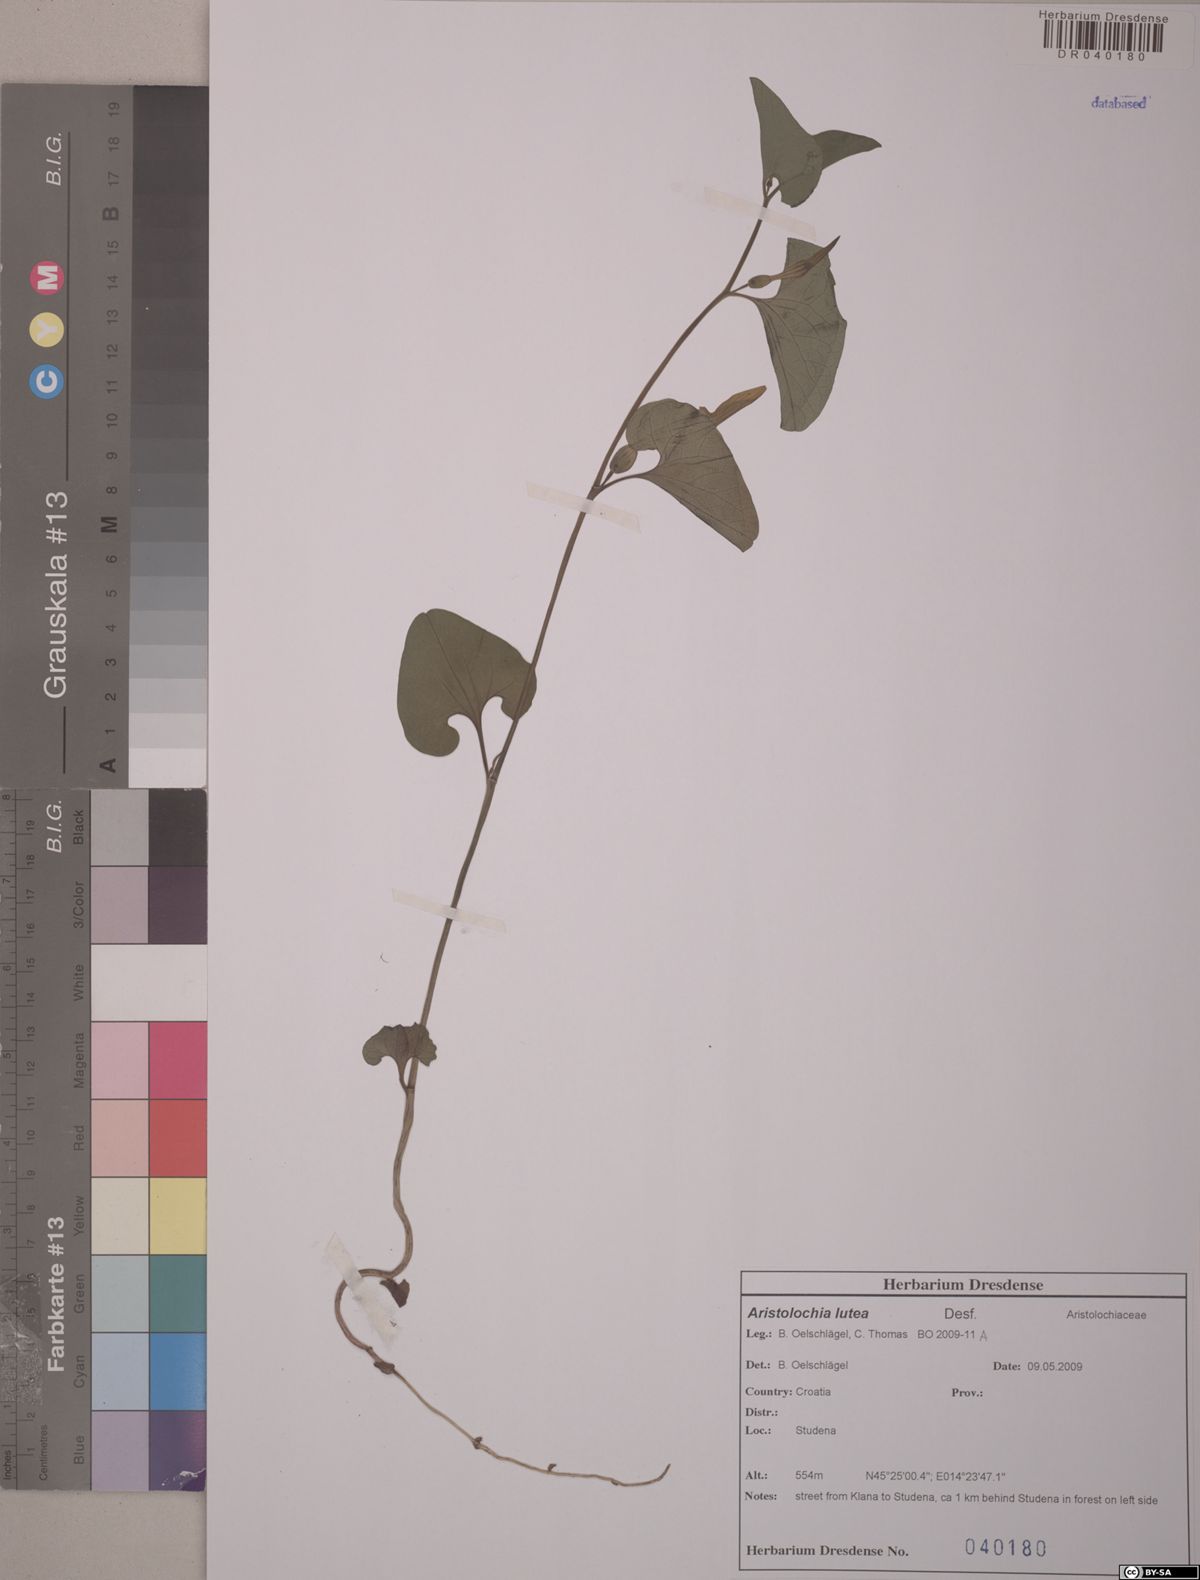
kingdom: Plantae
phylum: Tracheophyta
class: Magnoliopsida
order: Piperales
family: Aristolochiaceae
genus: Aristolochia
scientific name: Aristolochia lutea
